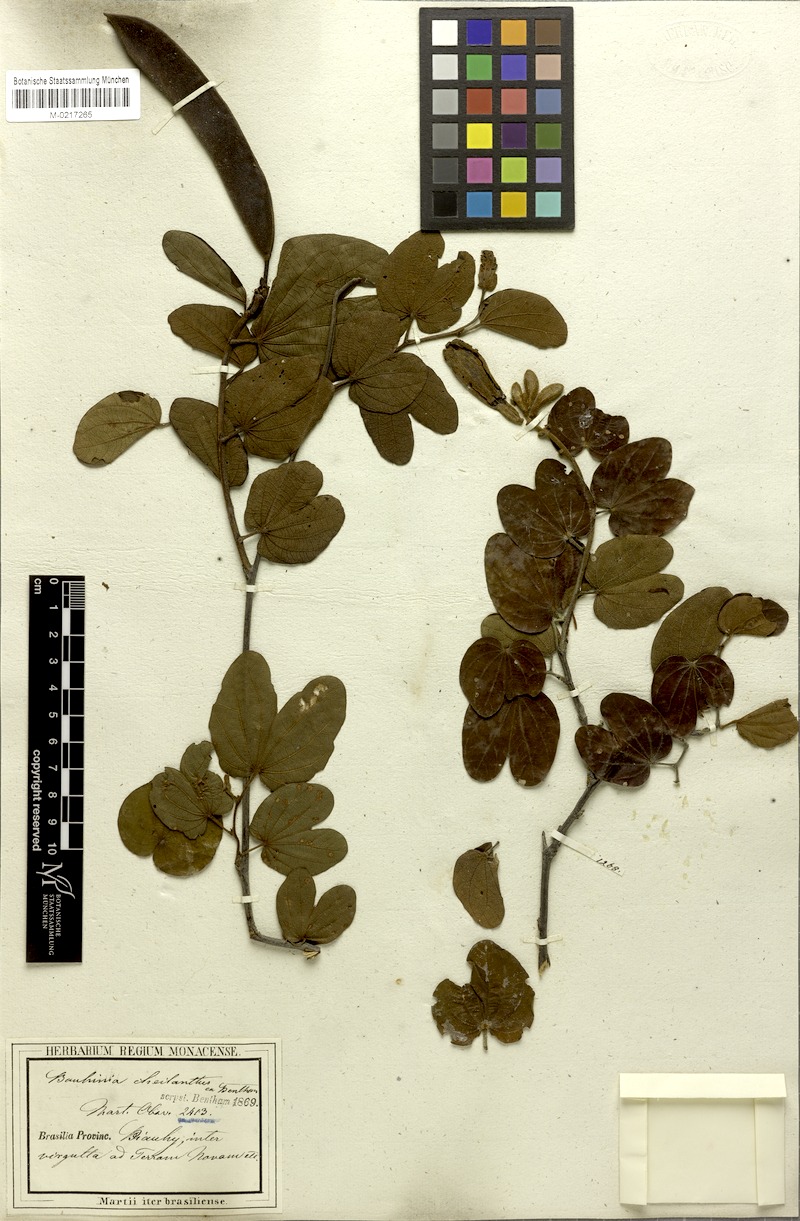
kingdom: Plantae
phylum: Tracheophyta
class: Magnoliopsida
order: Fabales
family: Fabaceae
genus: Bauhinia
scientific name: Bauhinia cheilantha
